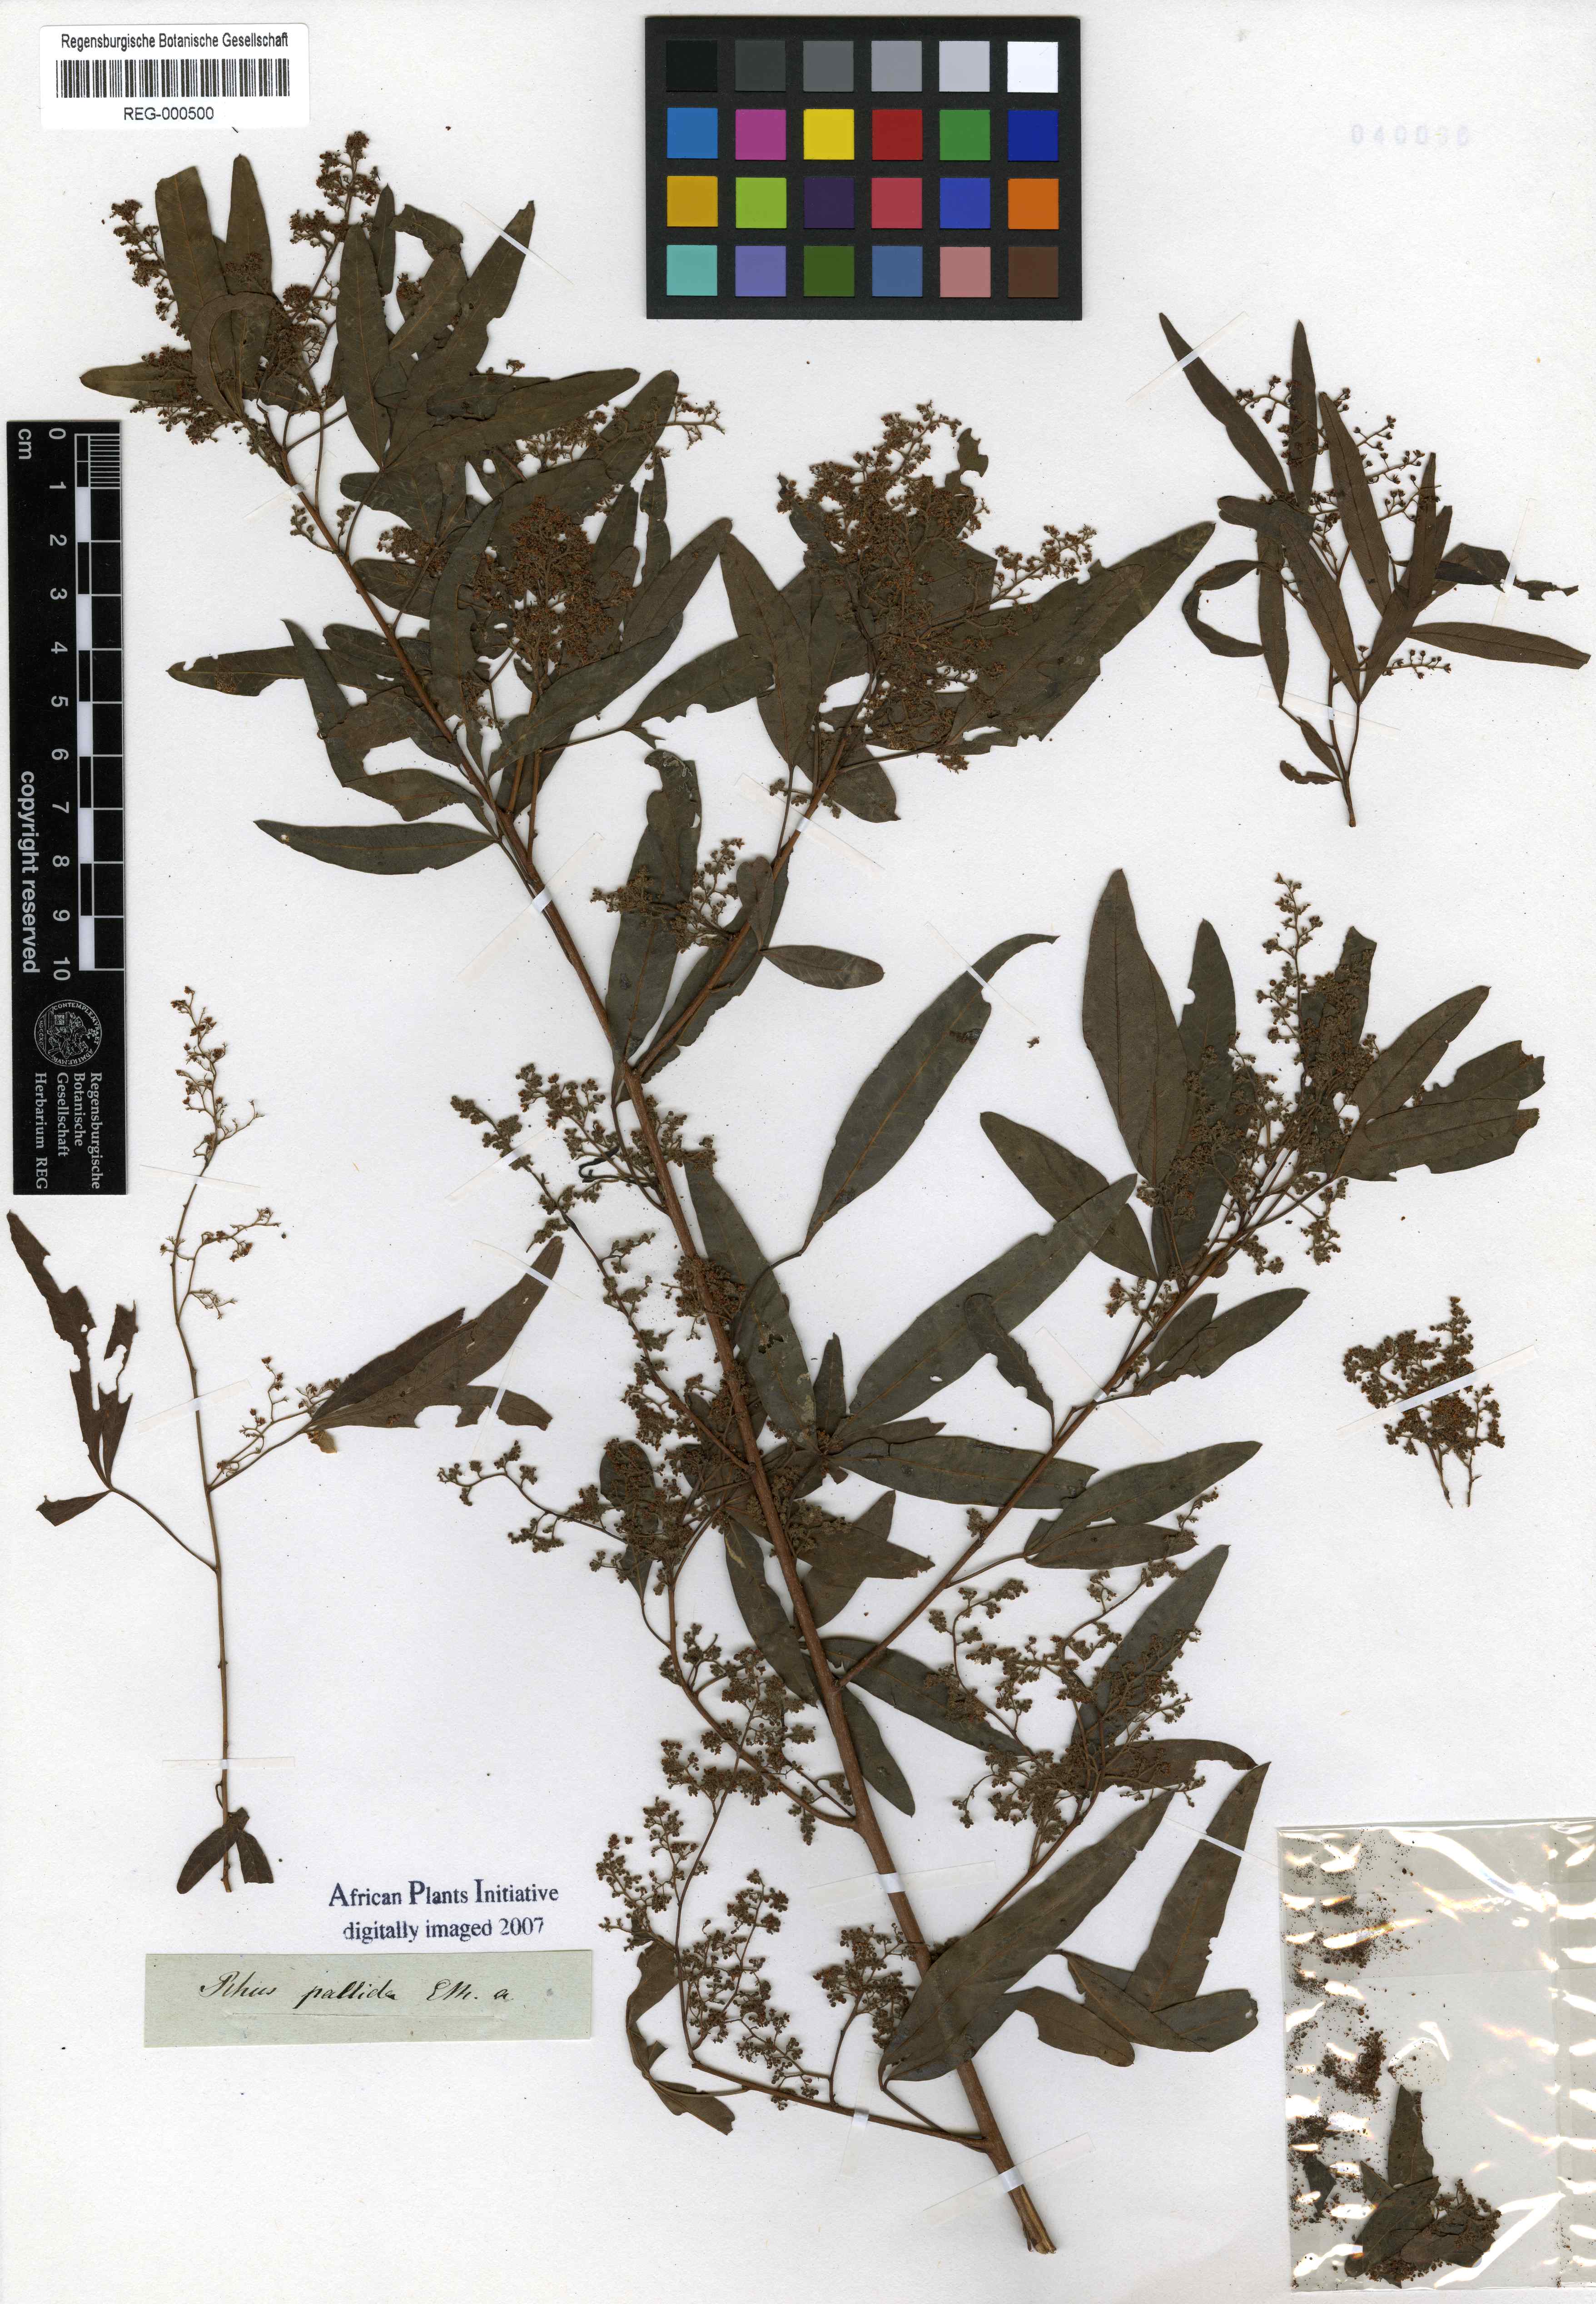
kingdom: Plantae
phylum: Tracheophyta
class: Magnoliopsida
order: Sapindales
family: Anacardiaceae
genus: Searsia
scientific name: Searsia pendulina
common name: White karee
